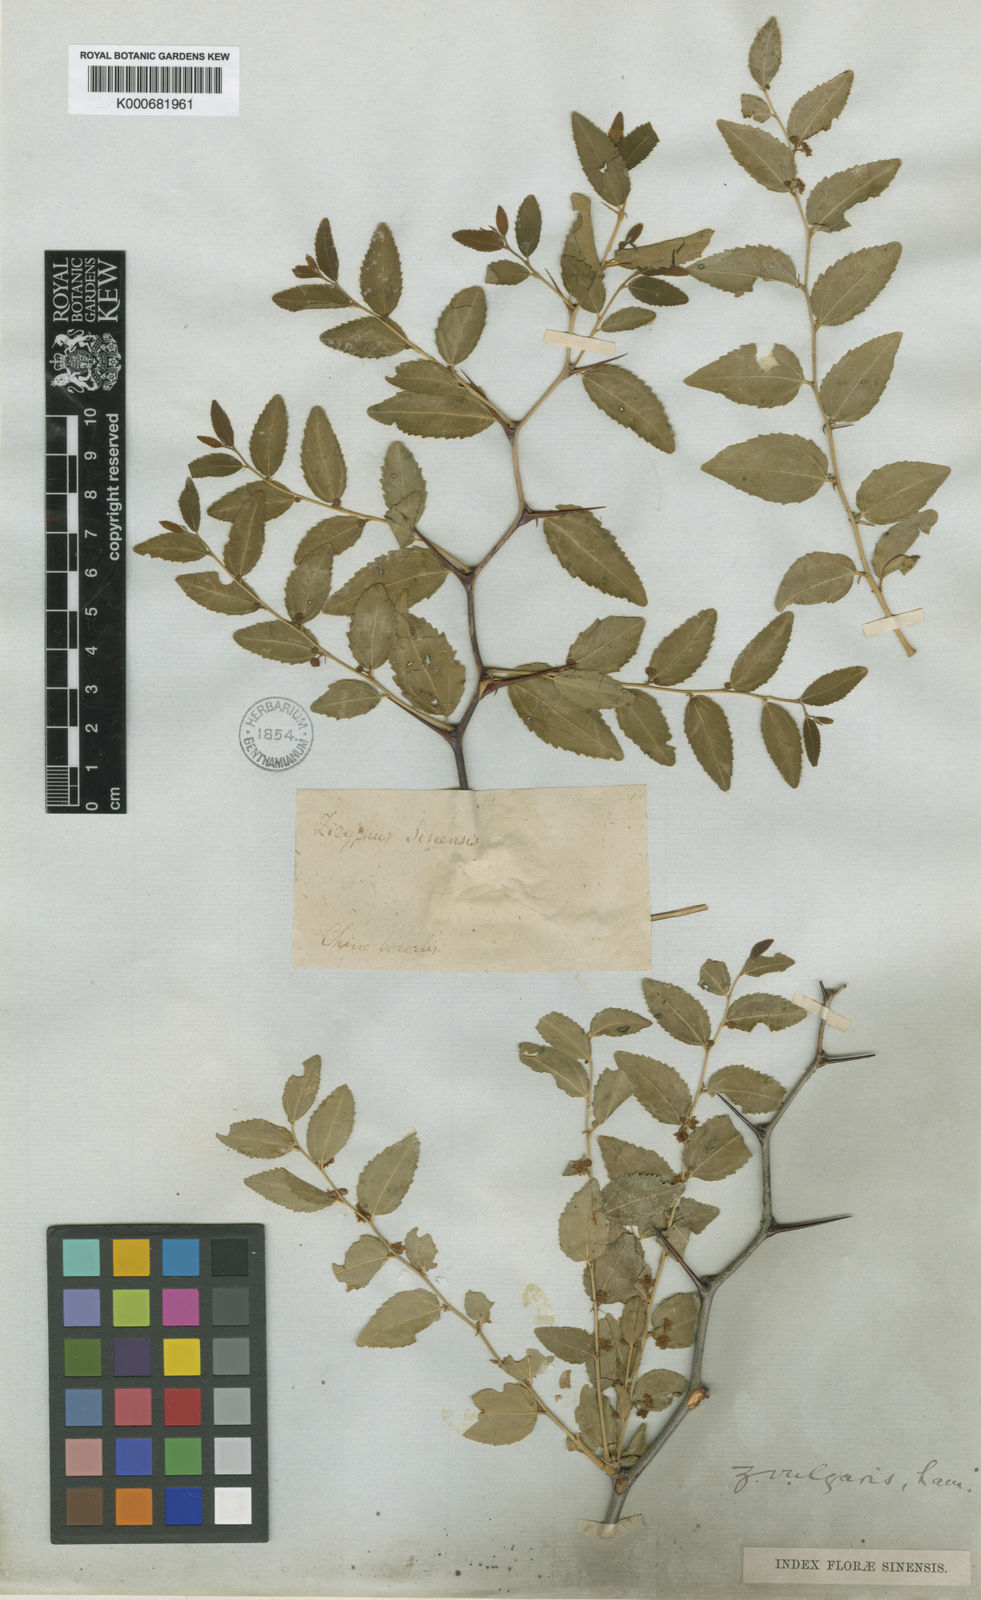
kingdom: Plantae
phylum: Tracheophyta
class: Magnoliopsida
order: Rosales
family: Rhamnaceae
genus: Ziziphus
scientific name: Ziziphus jujuba
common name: Jujube red date
